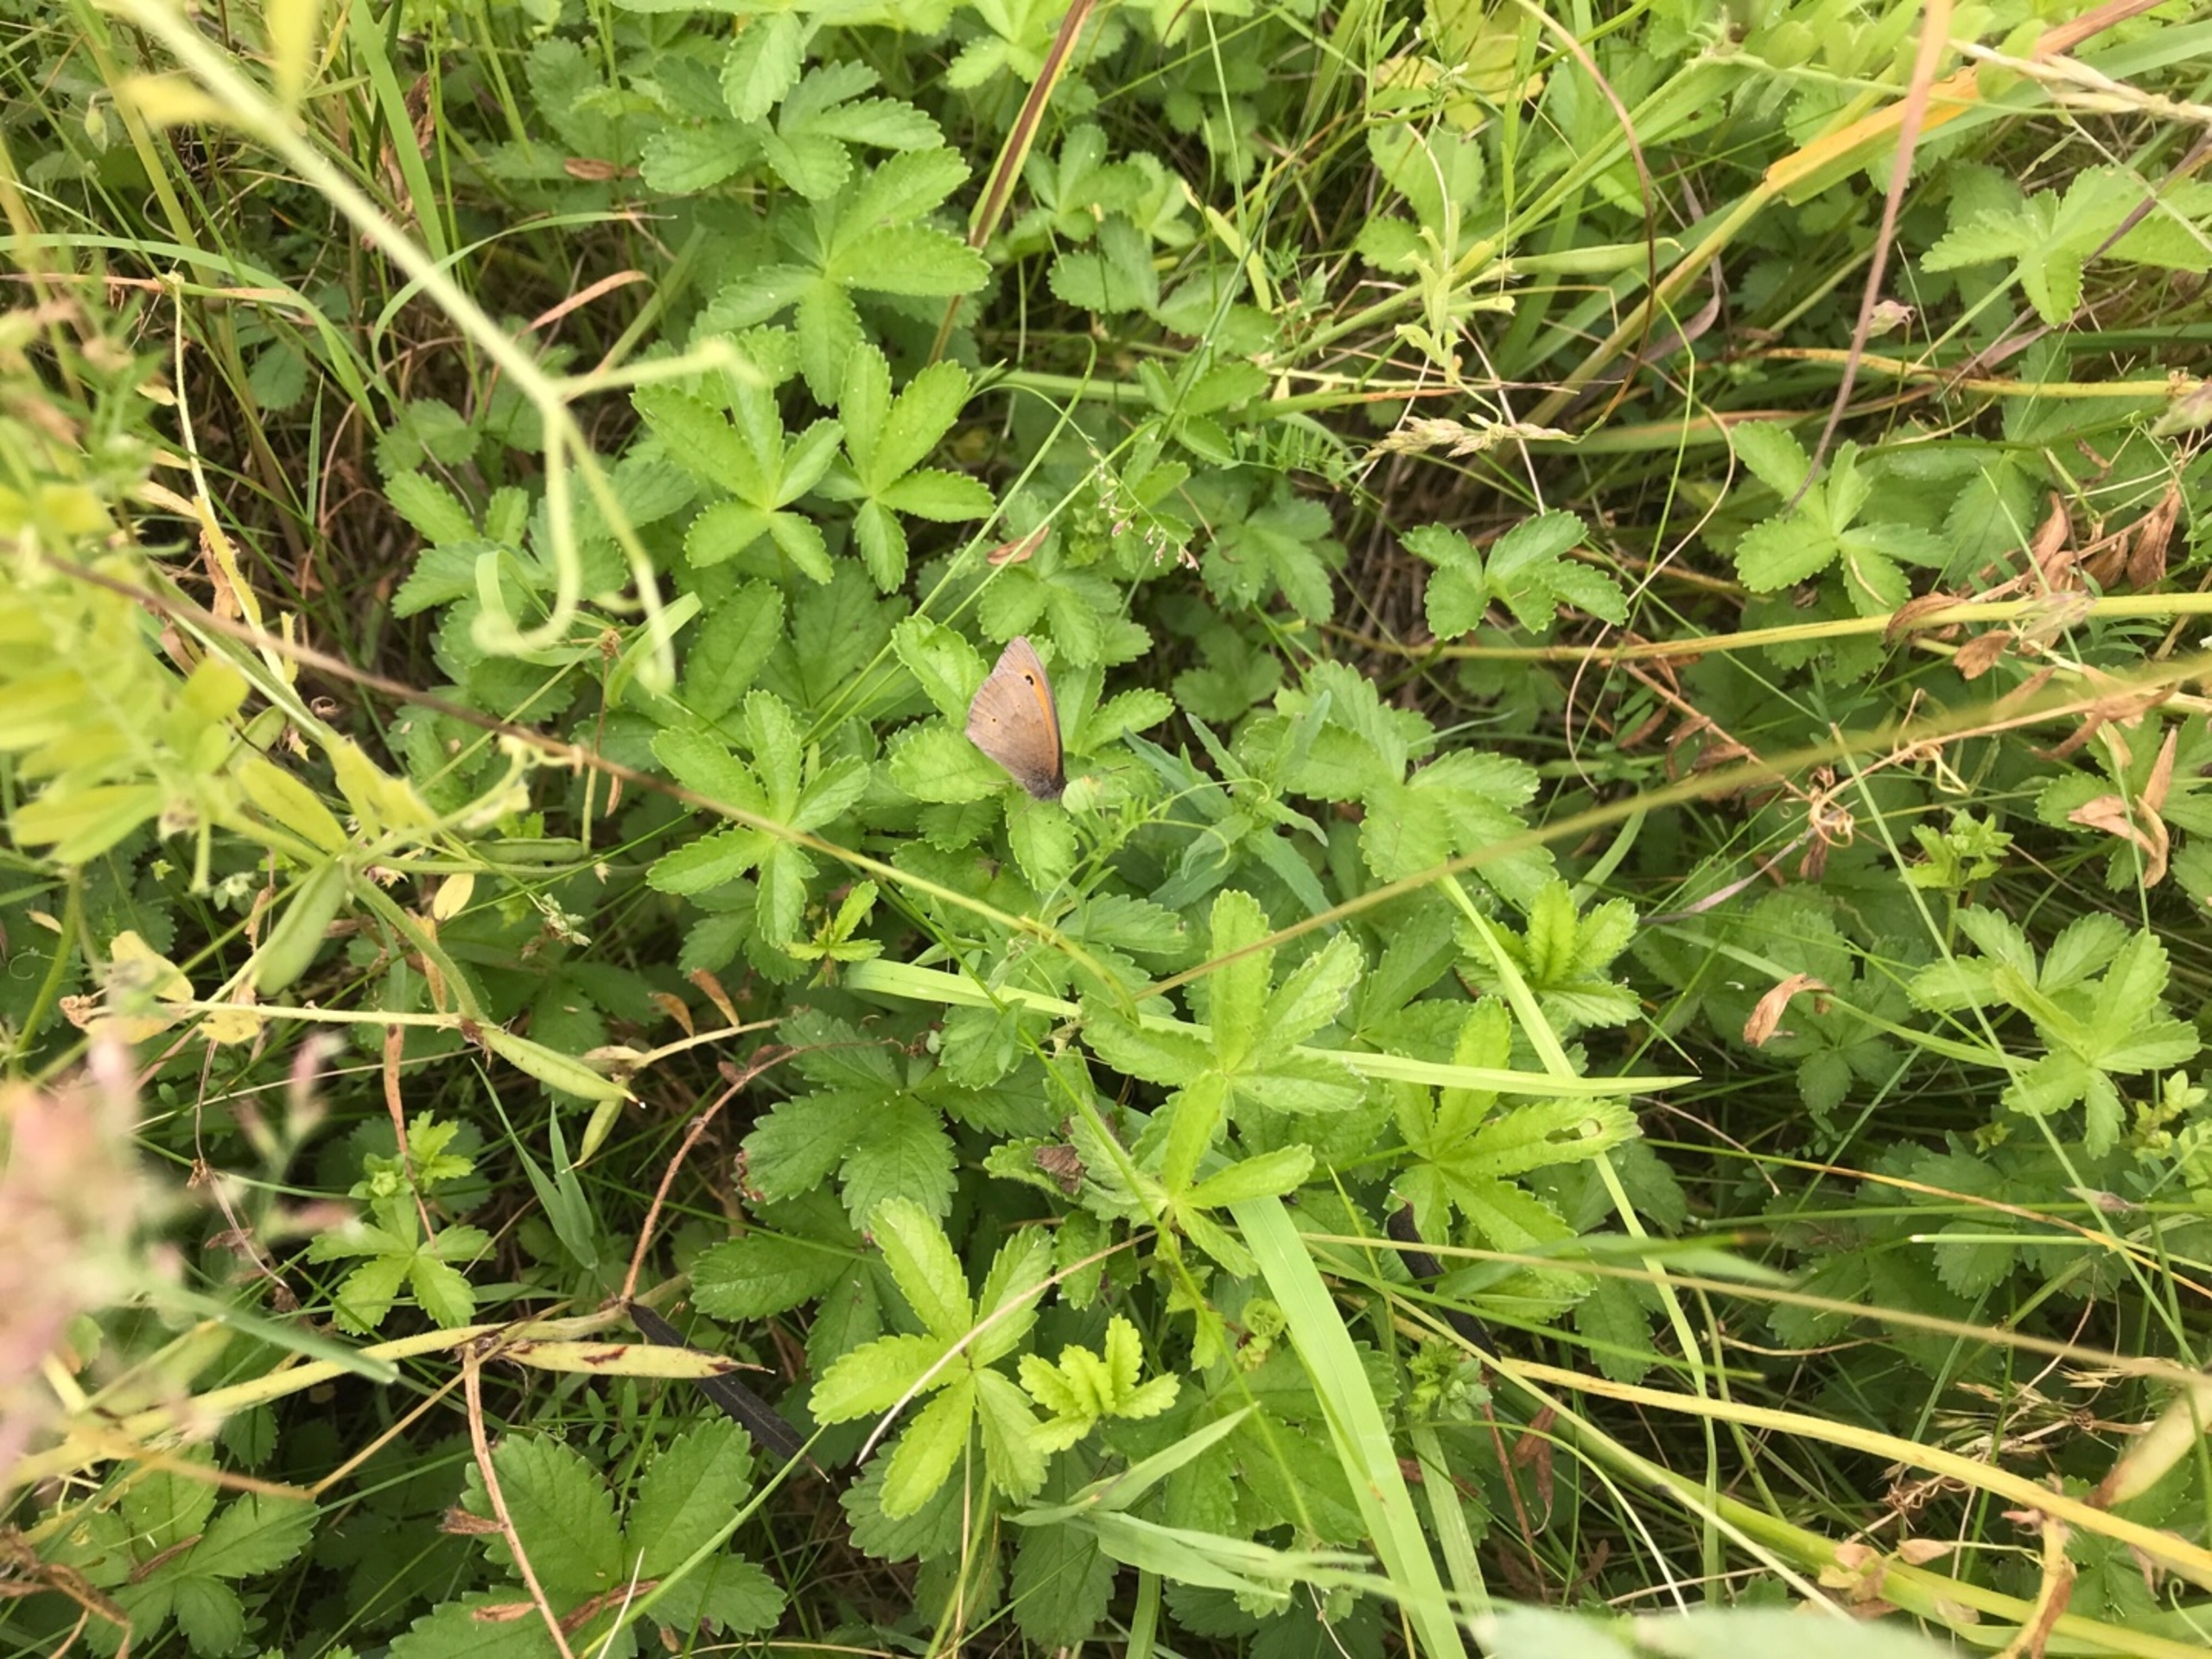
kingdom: Animalia
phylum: Arthropoda
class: Insecta
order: Lepidoptera
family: Nymphalidae
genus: Maniola
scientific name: Maniola jurtina
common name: Græsrandøje
